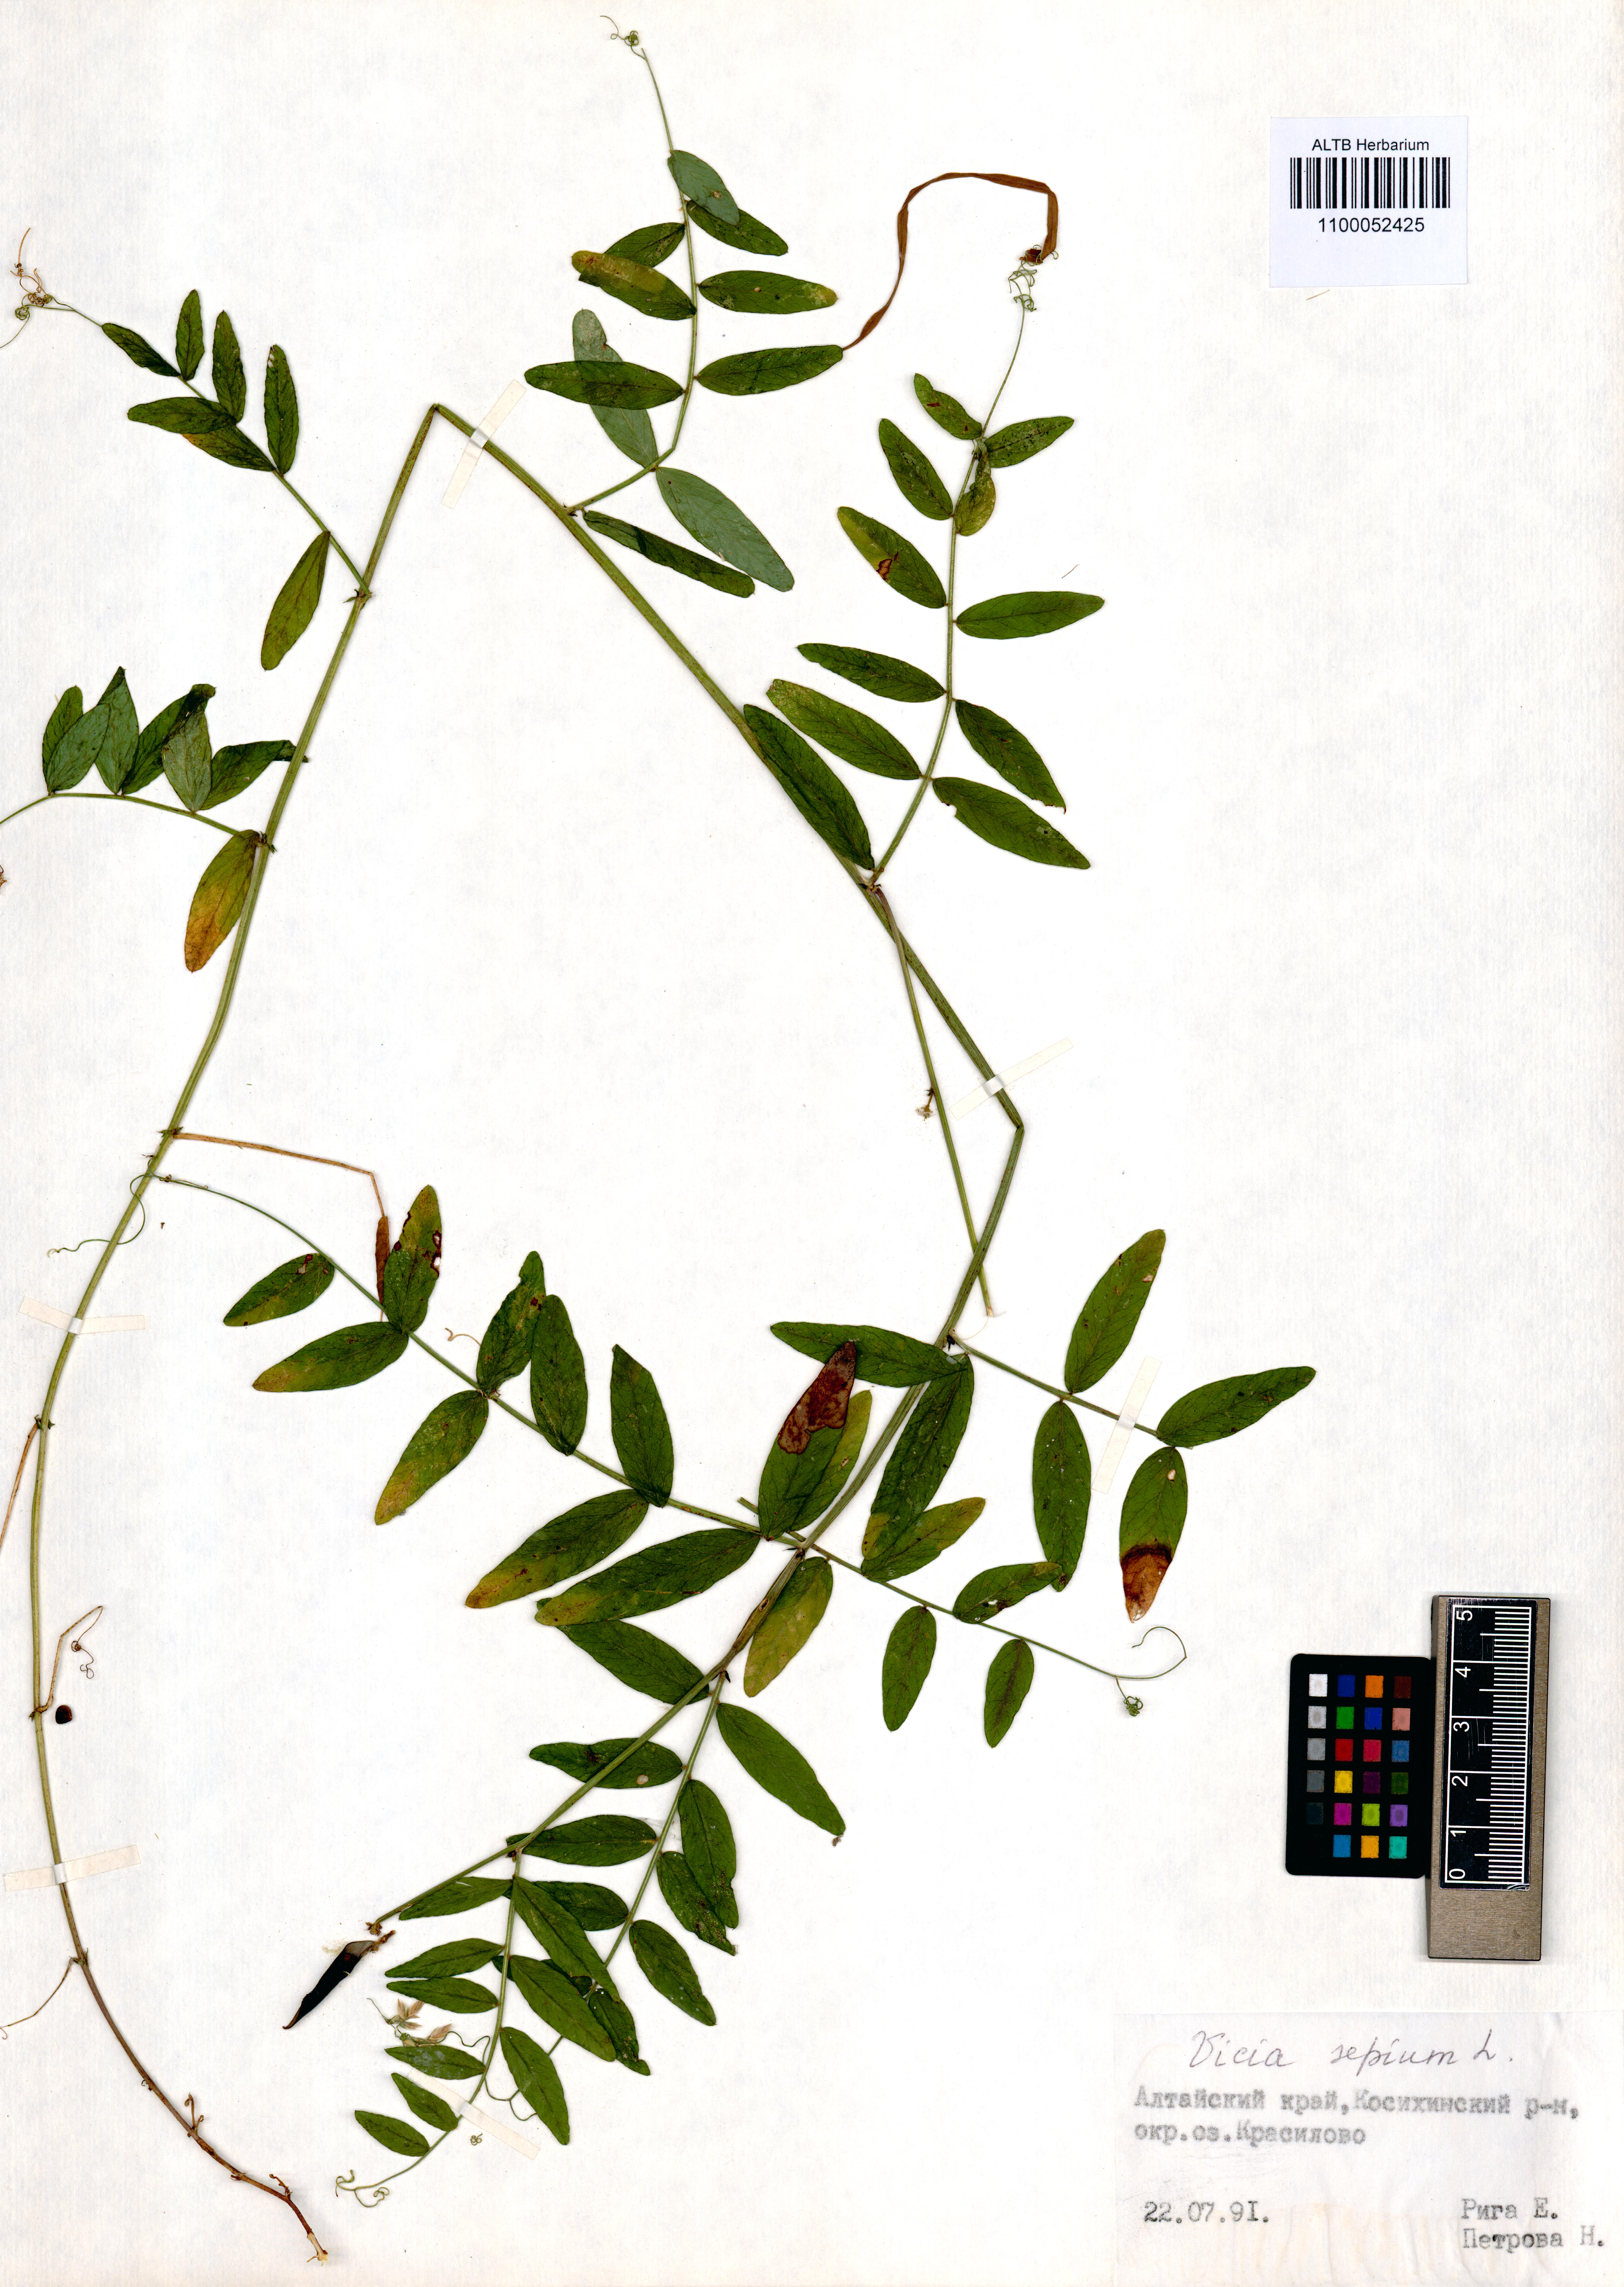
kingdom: Plantae
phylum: Tracheophyta
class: Magnoliopsida
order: Fabales
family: Fabaceae
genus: Vicia
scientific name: Vicia sepium
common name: Bush vetch
